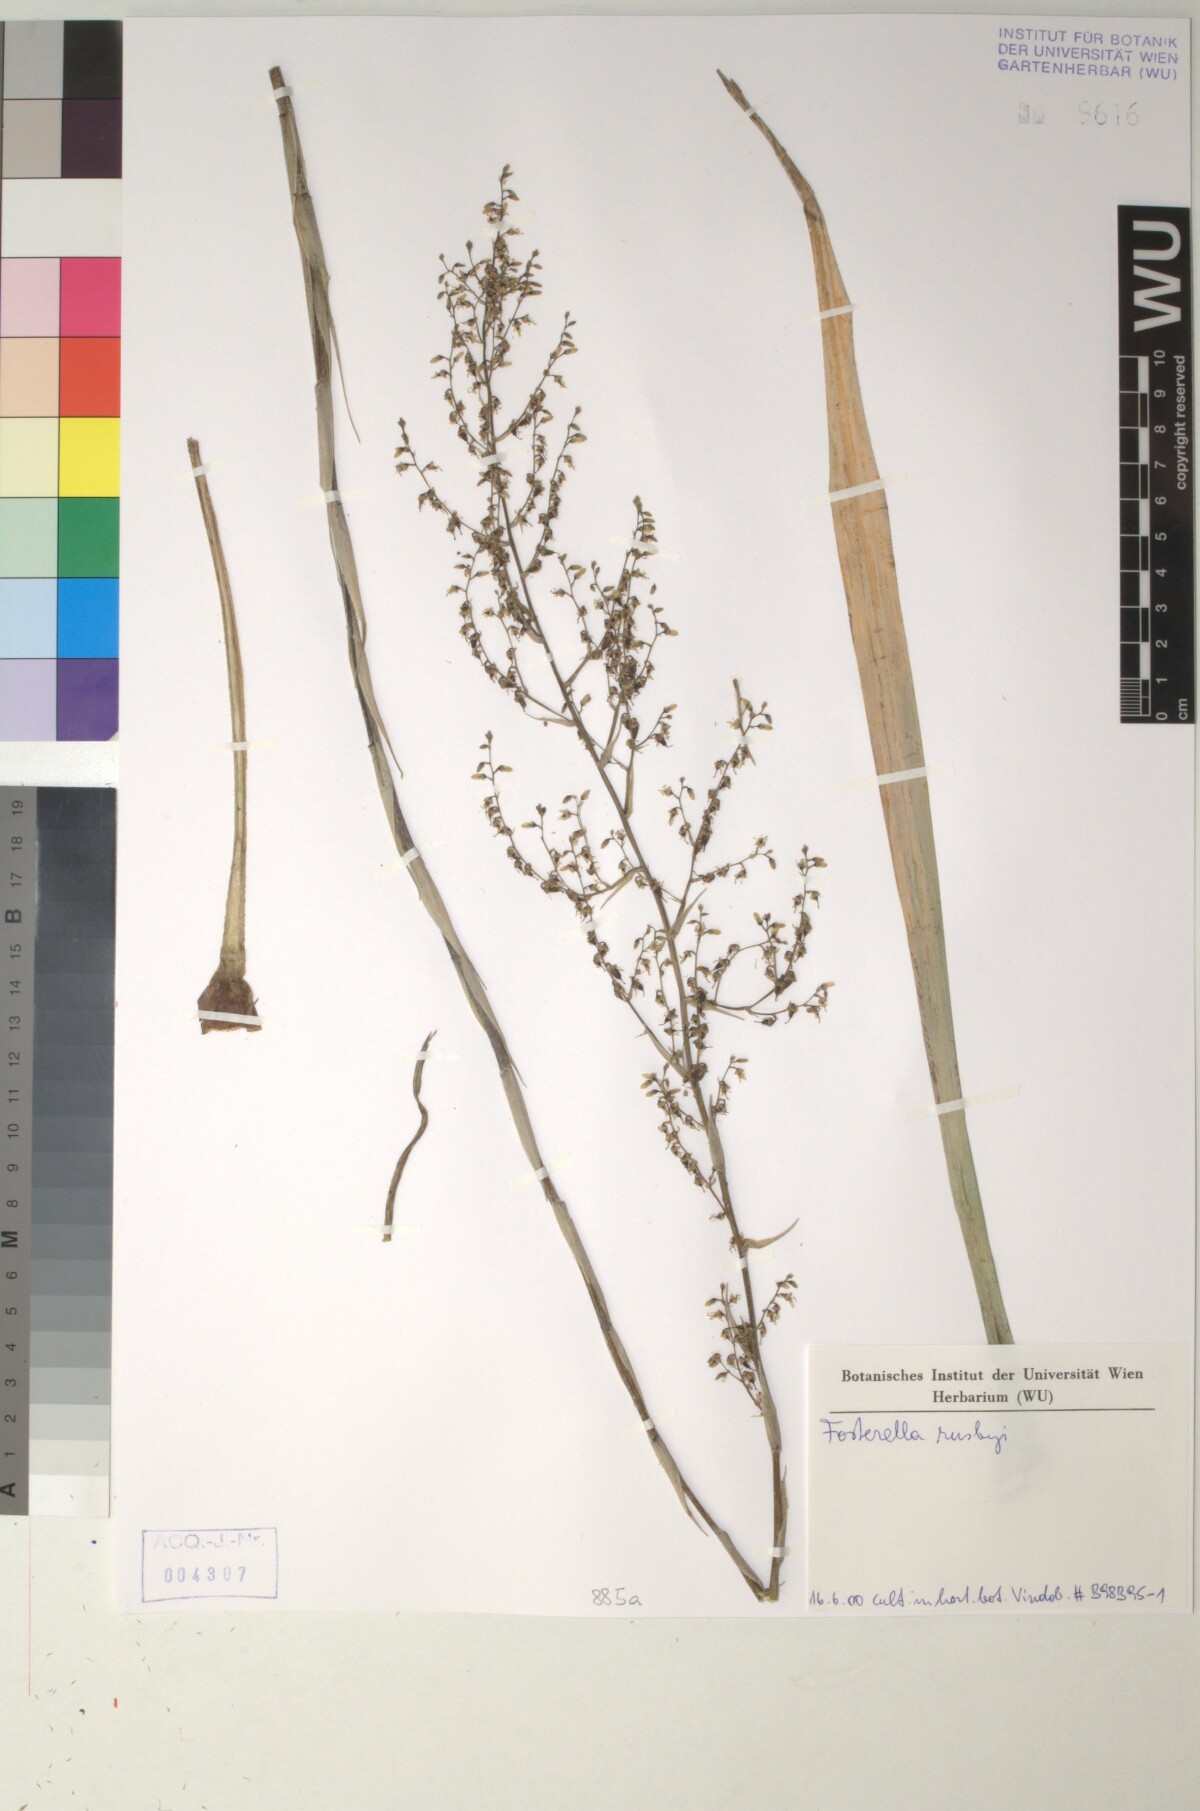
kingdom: Plantae
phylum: Tracheophyta
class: Liliopsida
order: Poales
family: Bromeliaceae
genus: Fosterella
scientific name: Fosterella robertreadii
